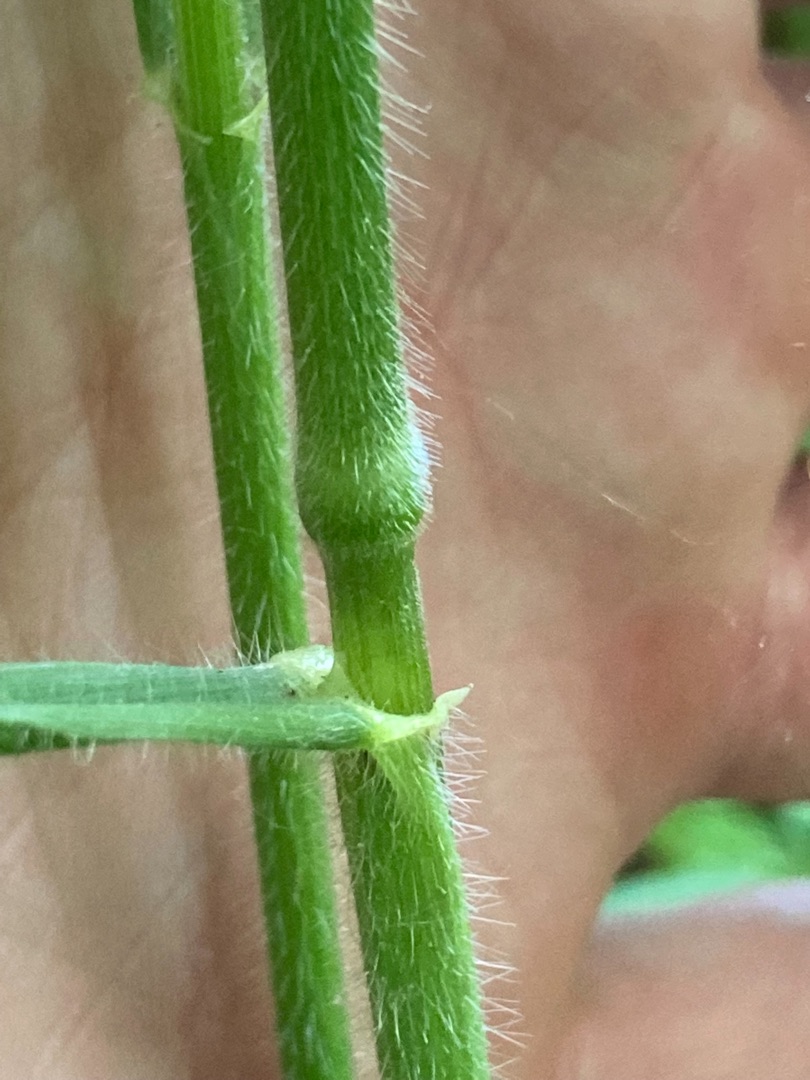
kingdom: Plantae
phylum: Tracheophyta
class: Liliopsida
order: Poales
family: Poaceae
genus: Bromus
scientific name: Bromus benekenii
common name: Tidlig skov-hejre
